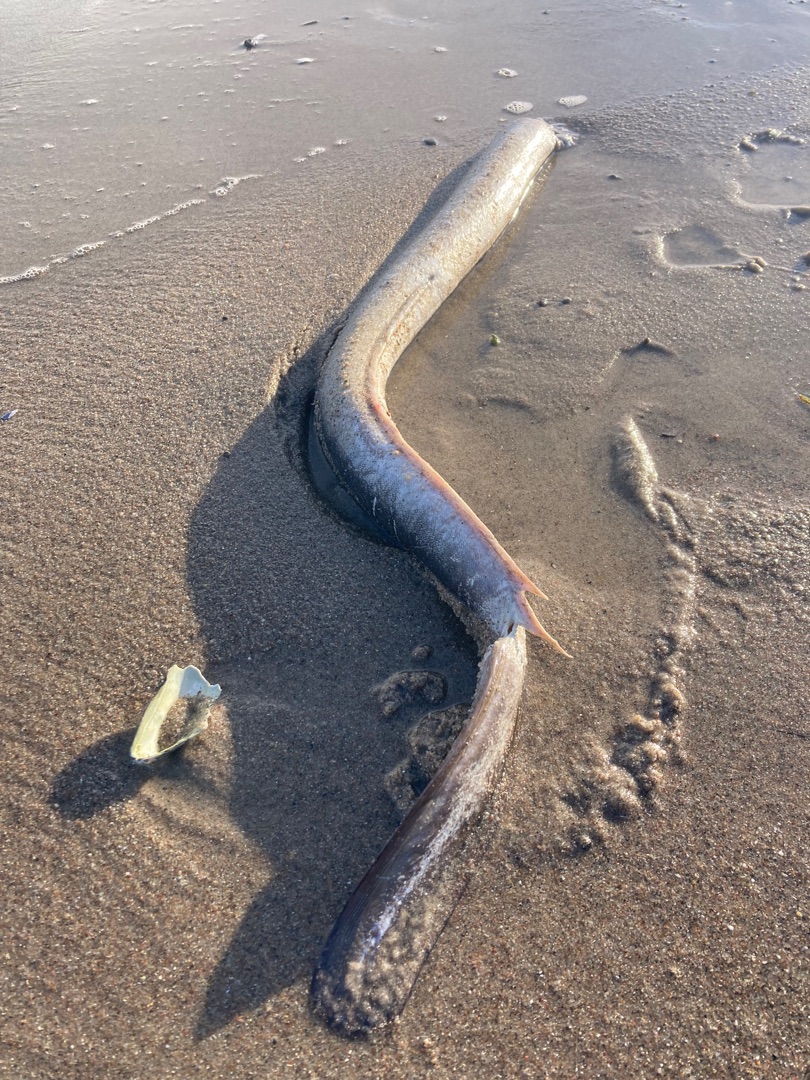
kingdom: Animalia
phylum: Chordata
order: Anguilliformes
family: Anguillidae
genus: Anguilla
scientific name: Anguilla anguilla
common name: Europæisk ål
